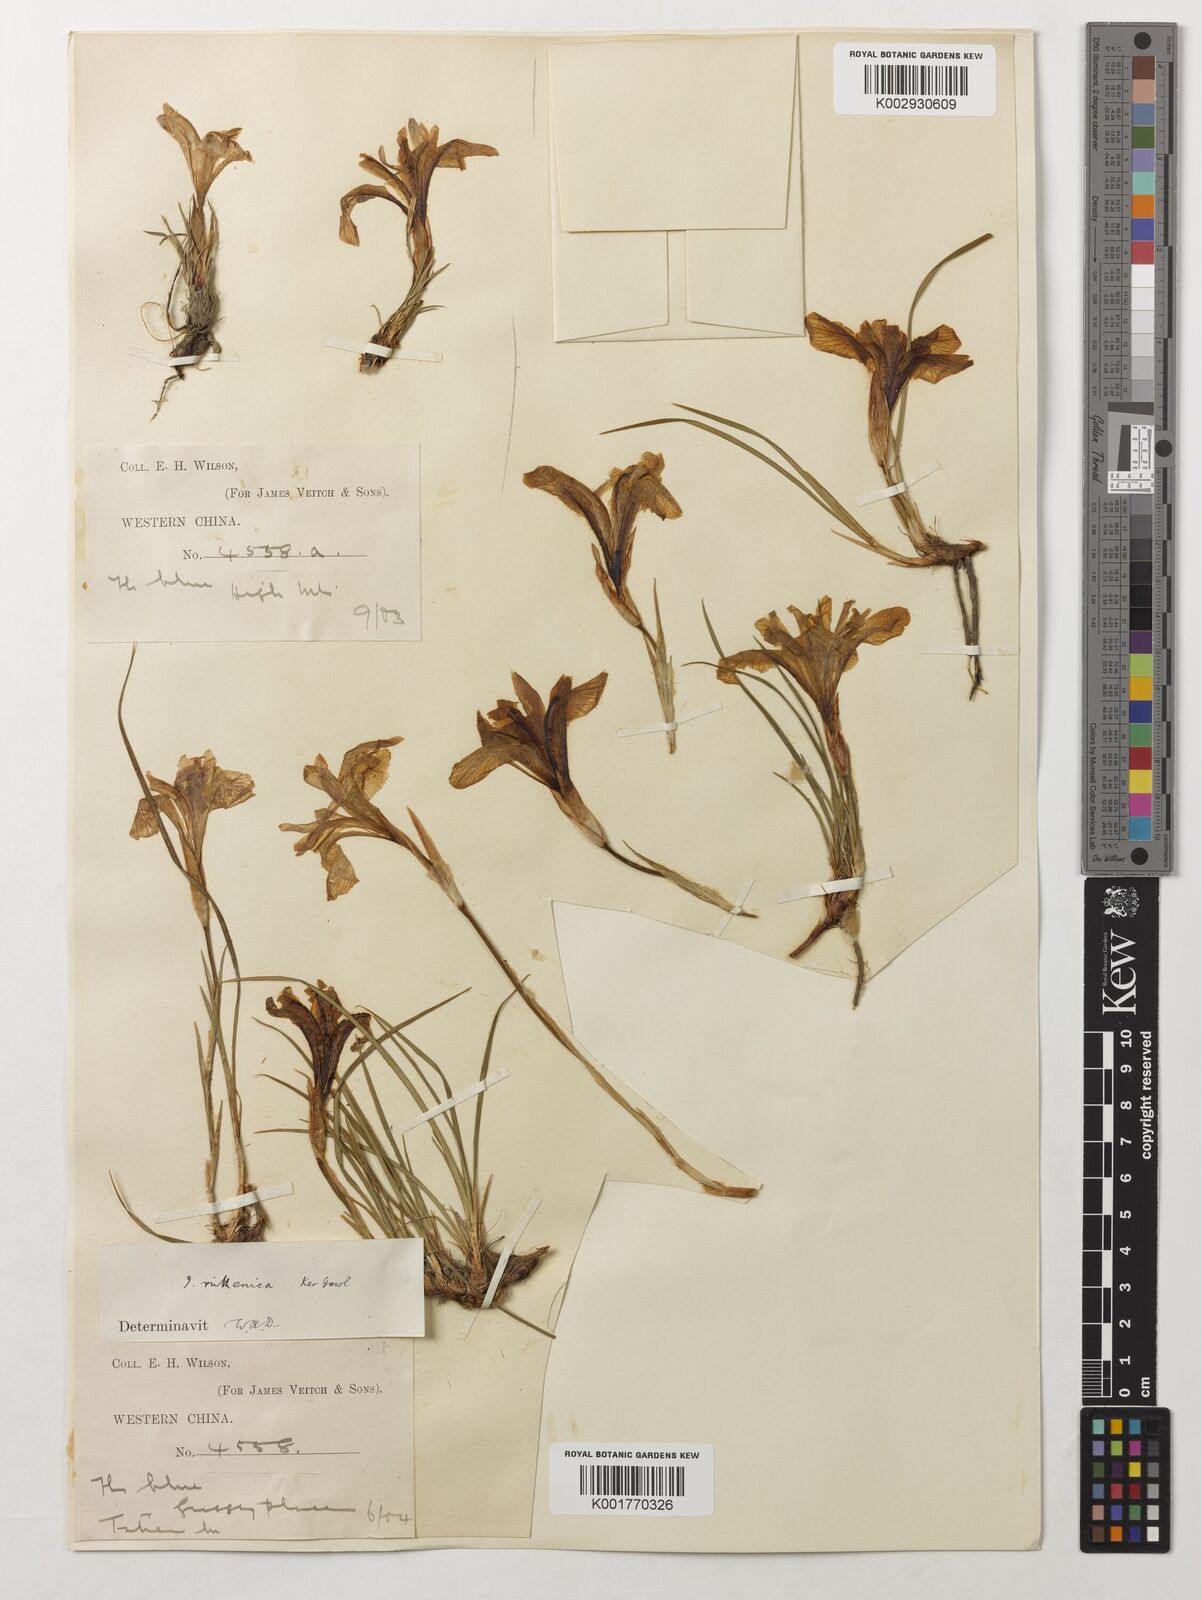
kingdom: Plantae
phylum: Tracheophyta
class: Liliopsida
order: Asparagales
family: Iridaceae
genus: Iris
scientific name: Iris ruthenica
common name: Purple-bract iris
